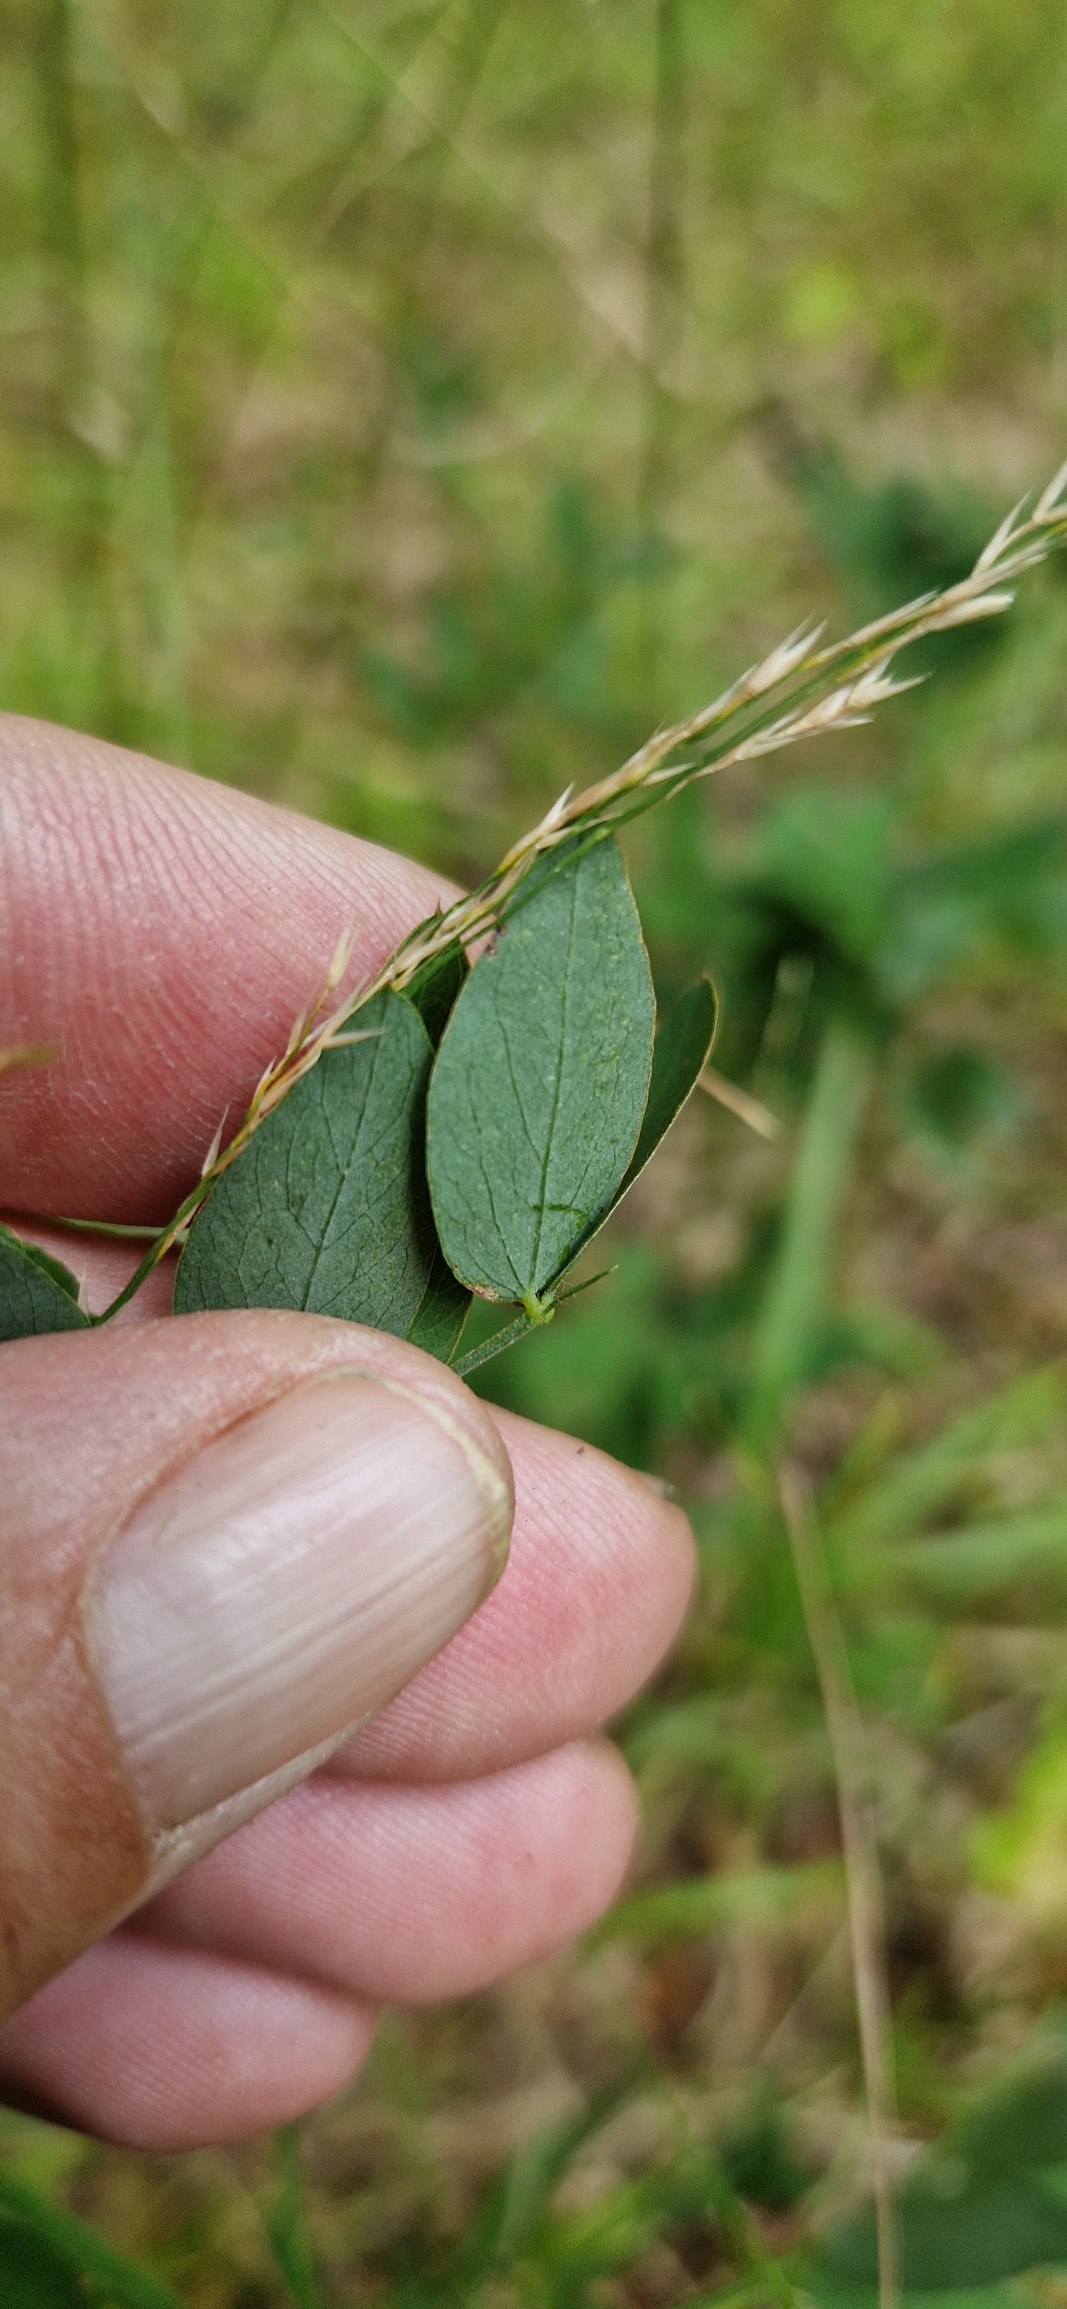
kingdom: Plantae
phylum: Tracheophyta
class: Magnoliopsida
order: Fabales
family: Fabaceae
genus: Lathyrus
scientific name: Lathyrus niger
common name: Sort fladbælg
